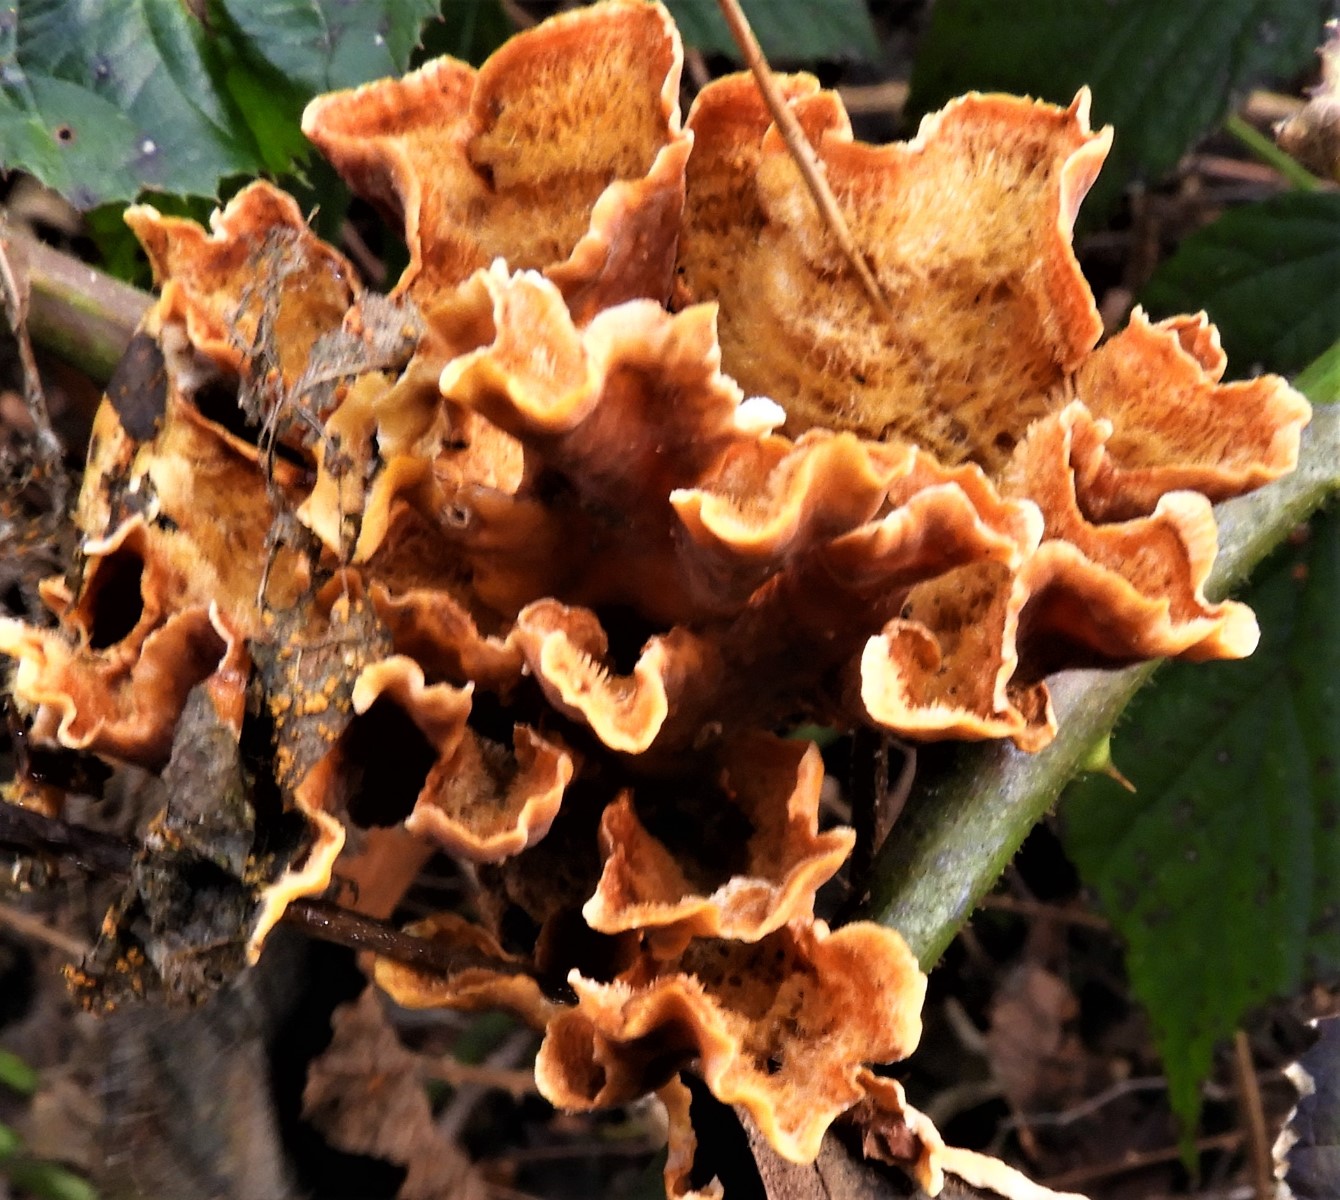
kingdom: Fungi
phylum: Basidiomycota
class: Agaricomycetes
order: Russulales
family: Stereaceae
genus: Stereum
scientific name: Stereum hirsutum
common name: håret lædersvamp
